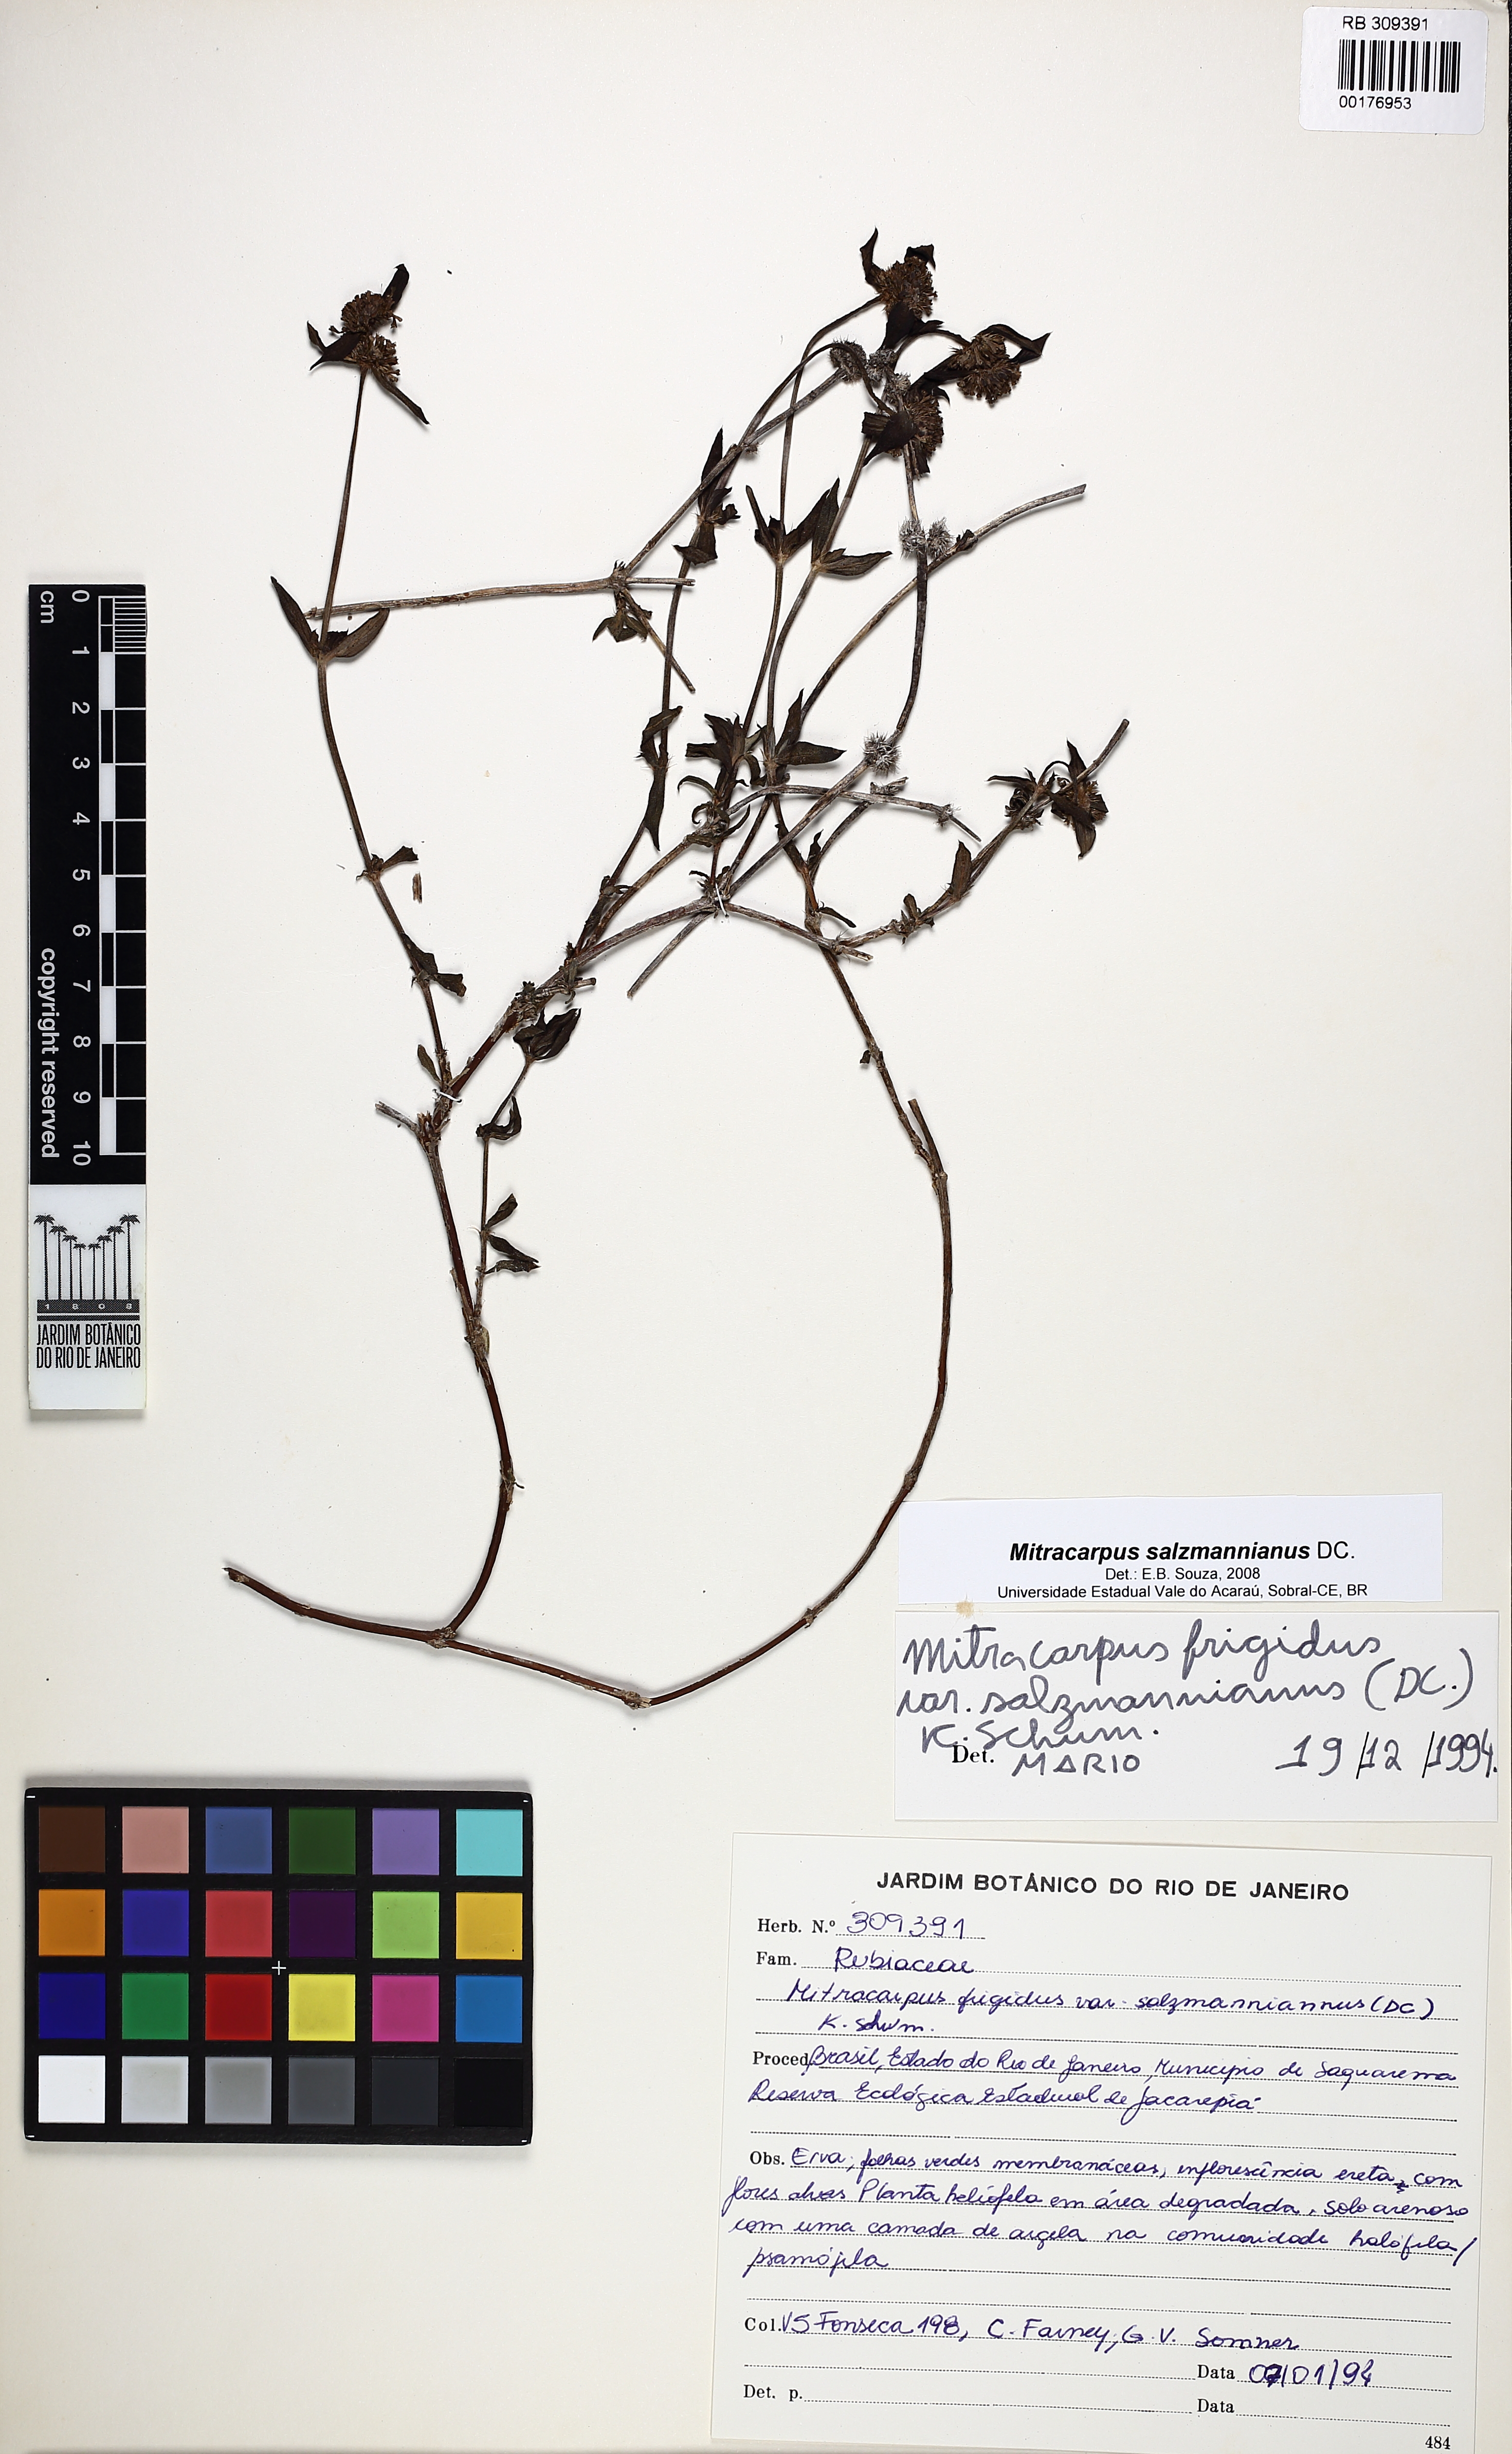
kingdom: Plantae
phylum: Tracheophyta
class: Magnoliopsida
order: Gentianales
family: Rubiaceae
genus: Mitracarpus
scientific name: Mitracarpus salzmannianus
